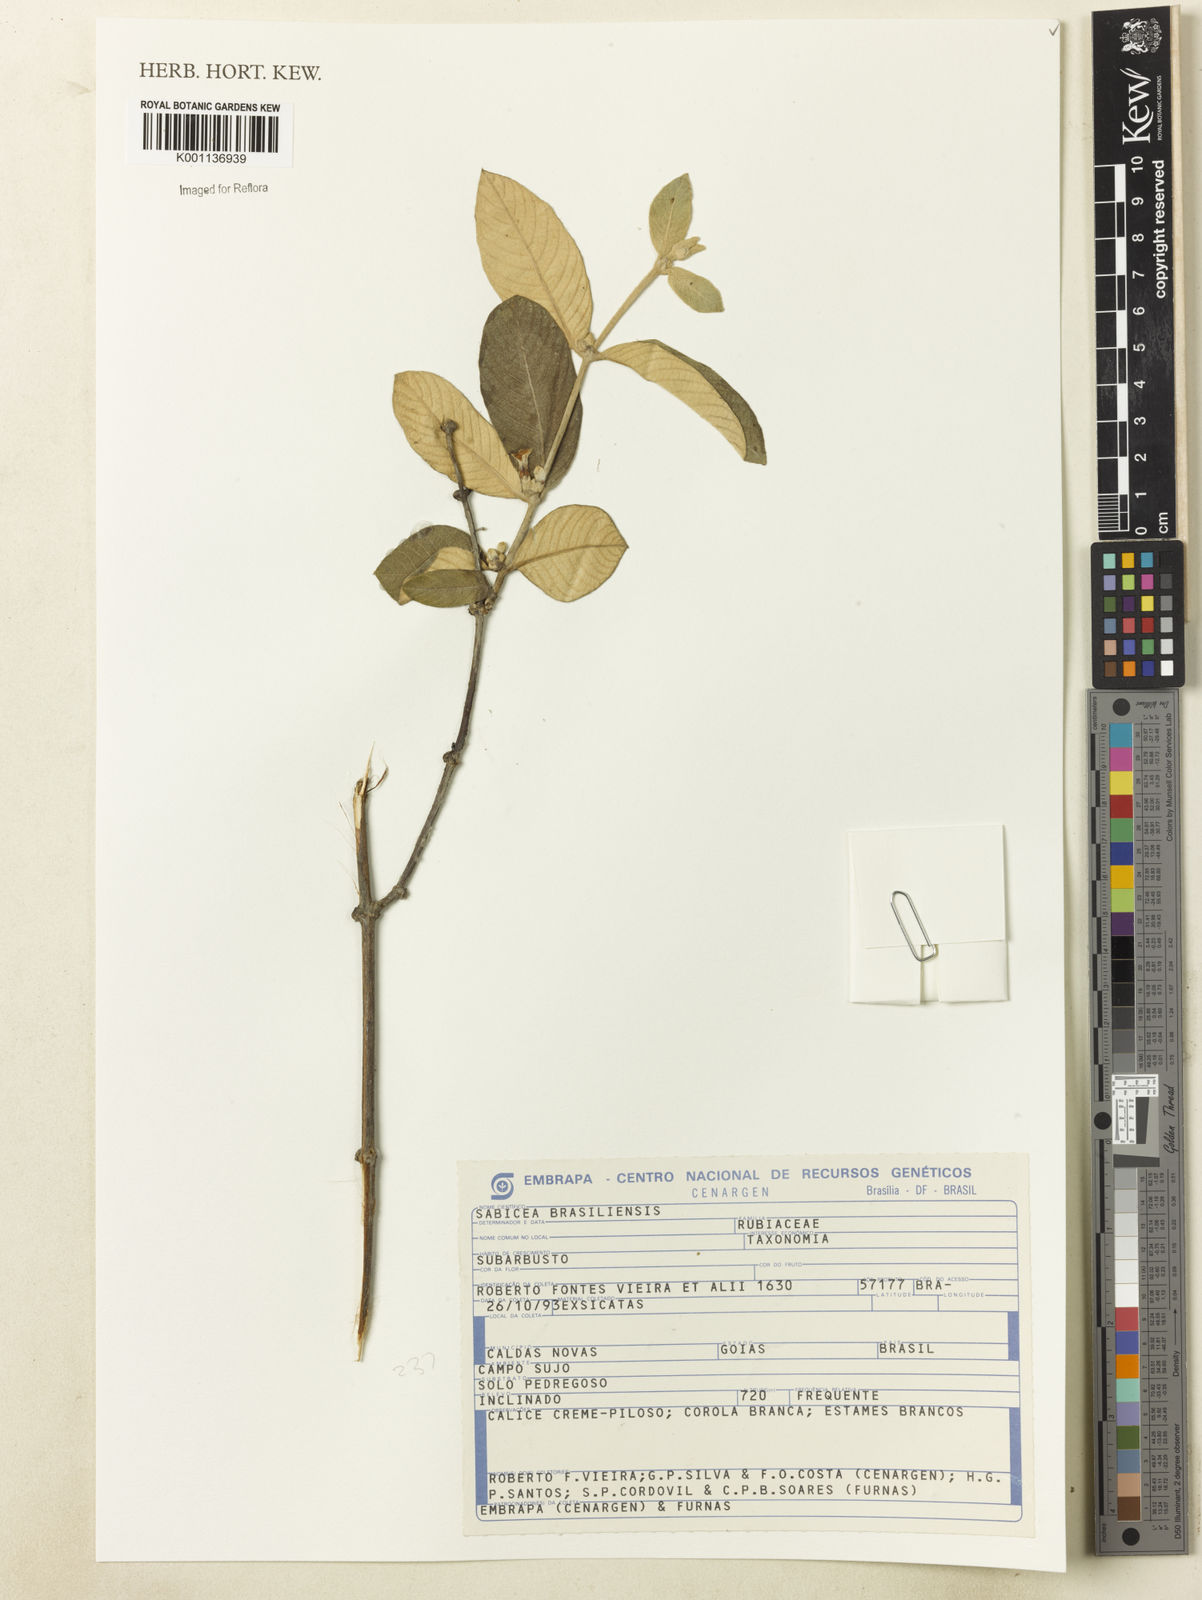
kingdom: Plantae
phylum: Tracheophyta
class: Magnoliopsida
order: Gentianales
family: Rubiaceae
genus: Sabicea
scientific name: Sabicea brasiliensis
